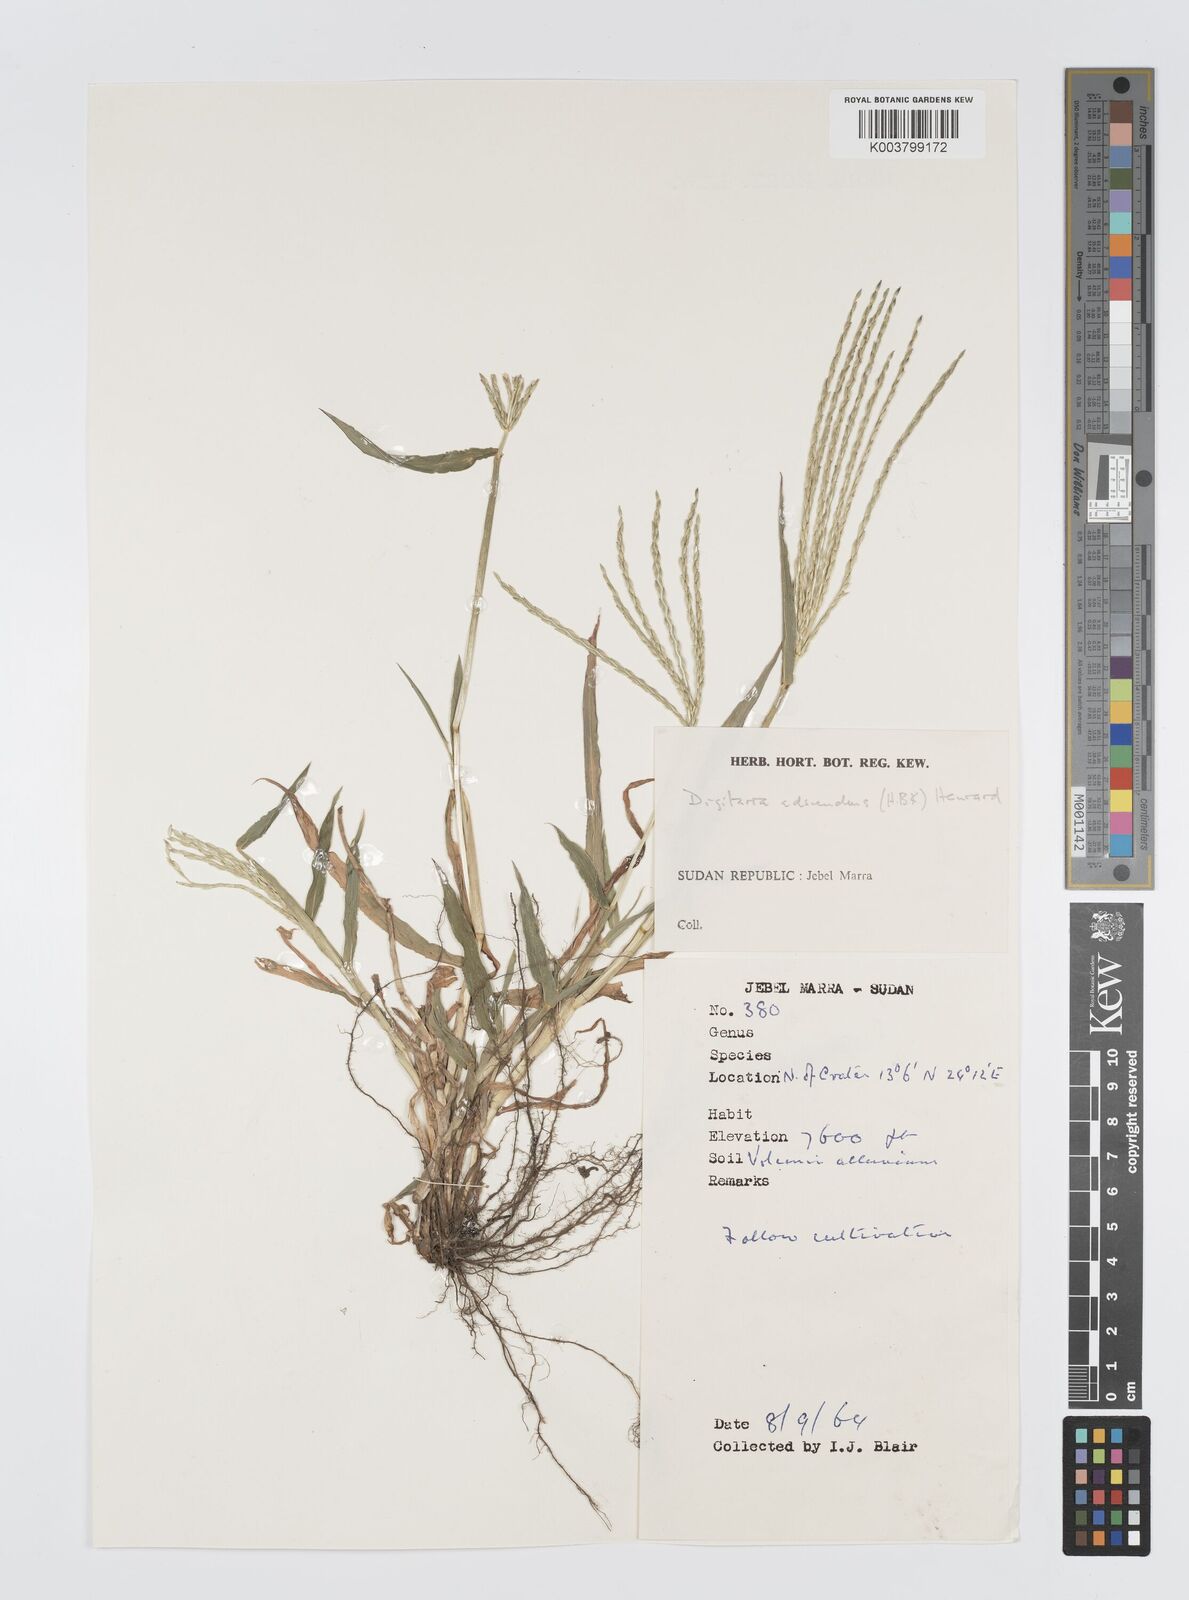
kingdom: Plantae
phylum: Tracheophyta
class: Liliopsida
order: Poales
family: Poaceae
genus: Digitaria
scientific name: Digitaria sanguinalis
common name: Hairy crabgrass
